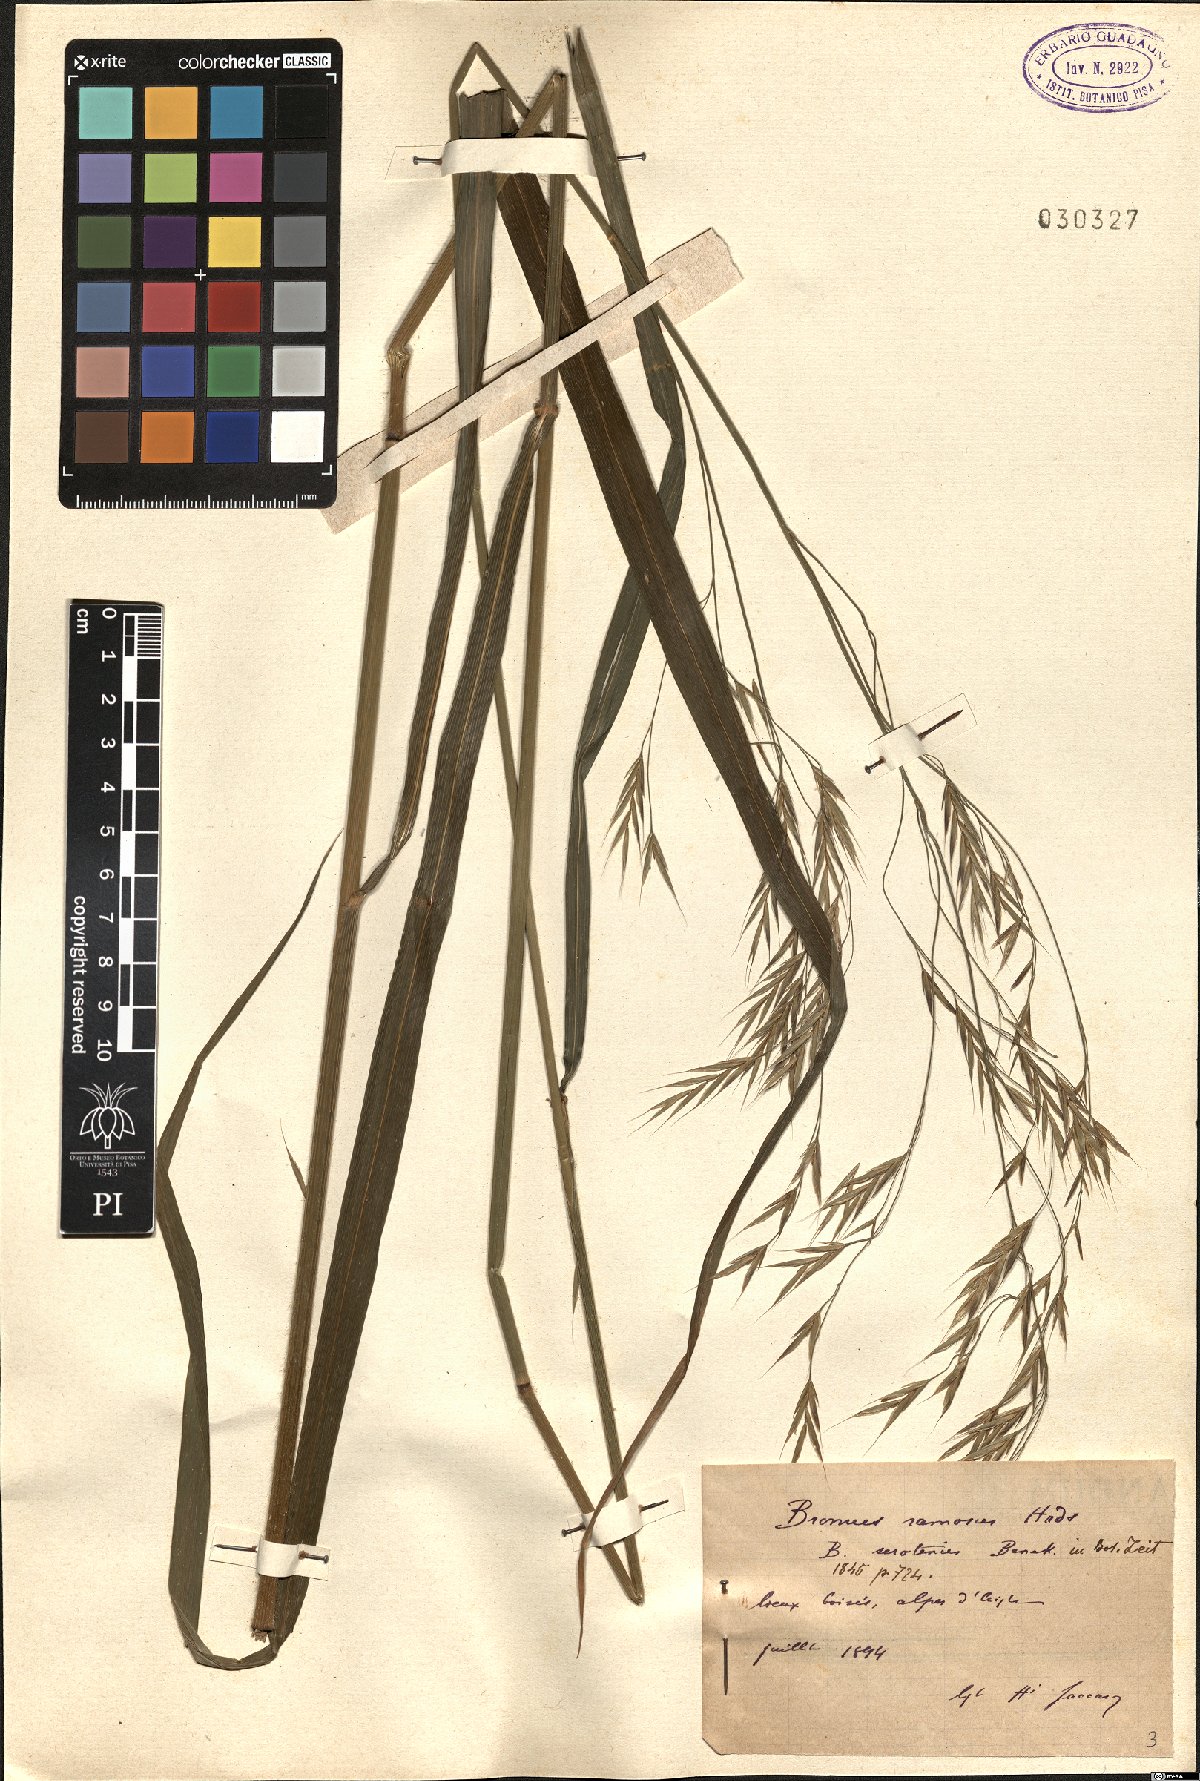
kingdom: Plantae
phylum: Tracheophyta
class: Liliopsida
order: Poales
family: Poaceae
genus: Bromus
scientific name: Bromus ramosus
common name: Hairy brome
